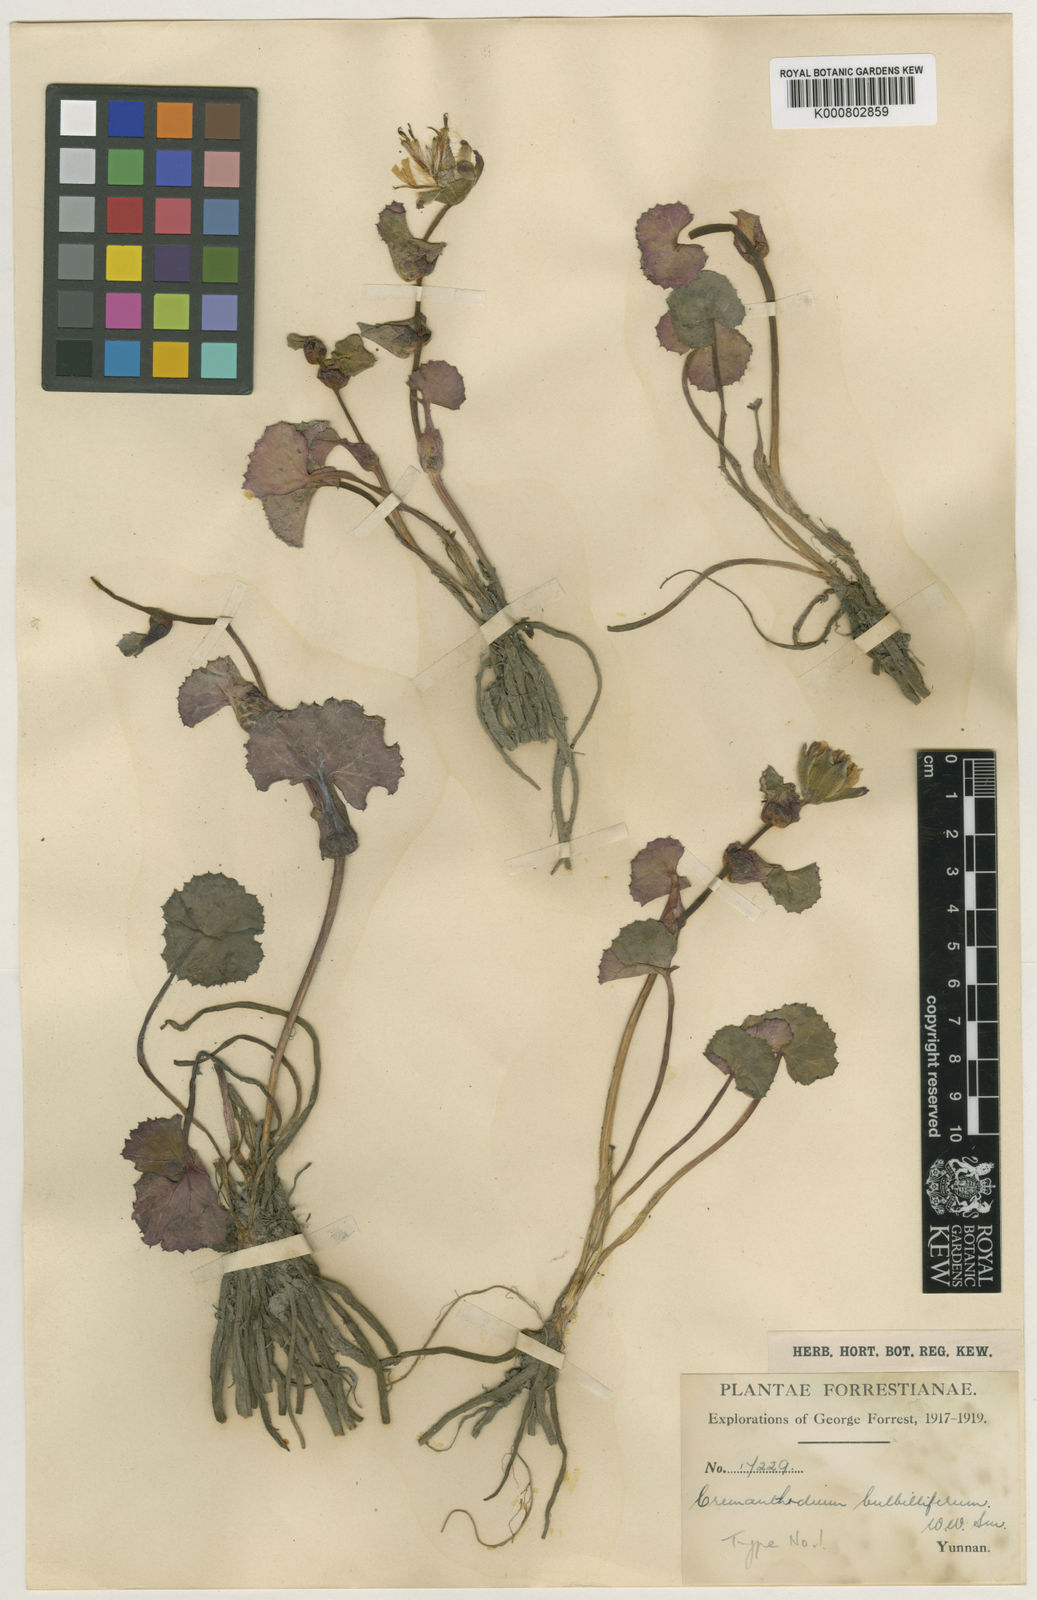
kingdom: Plantae
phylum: Tracheophyta
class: Magnoliopsida
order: Asterales
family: Asteraceae
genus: Cremanthodium
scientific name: Cremanthodium bulbilliferum
